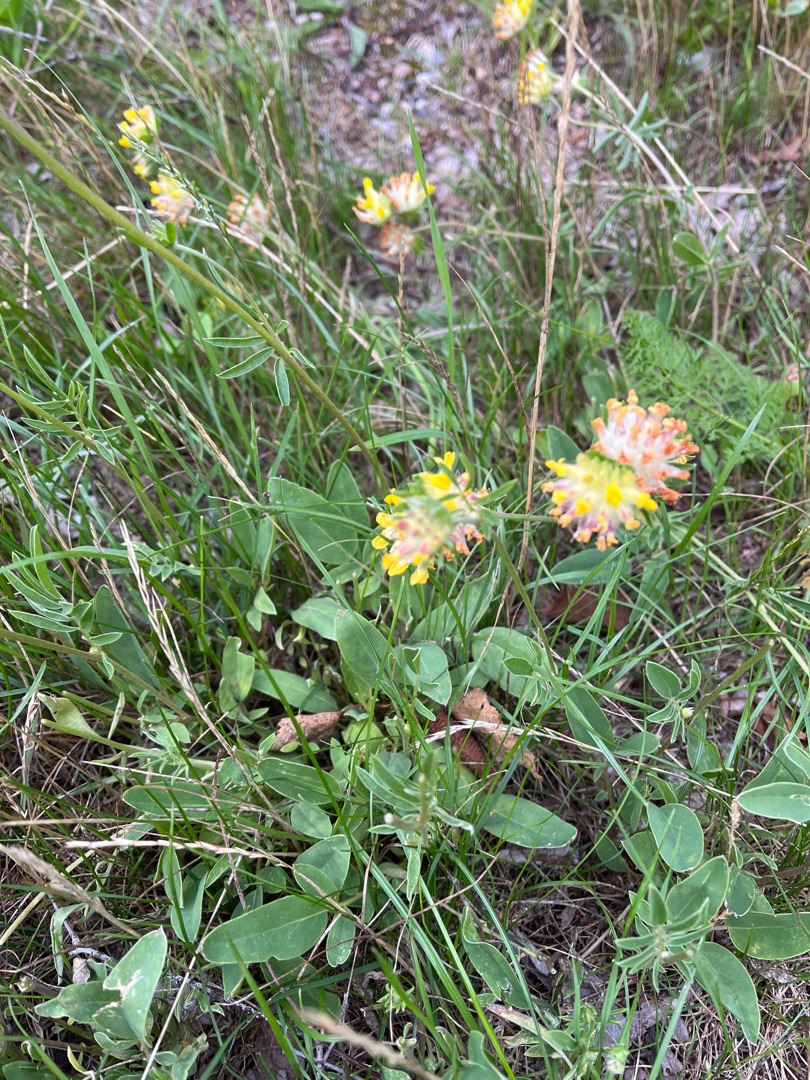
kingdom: Plantae
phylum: Tracheophyta
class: Magnoliopsida
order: Fabales
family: Fabaceae
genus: Anthyllis
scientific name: Anthyllis vulneraria
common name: Rundbælg
